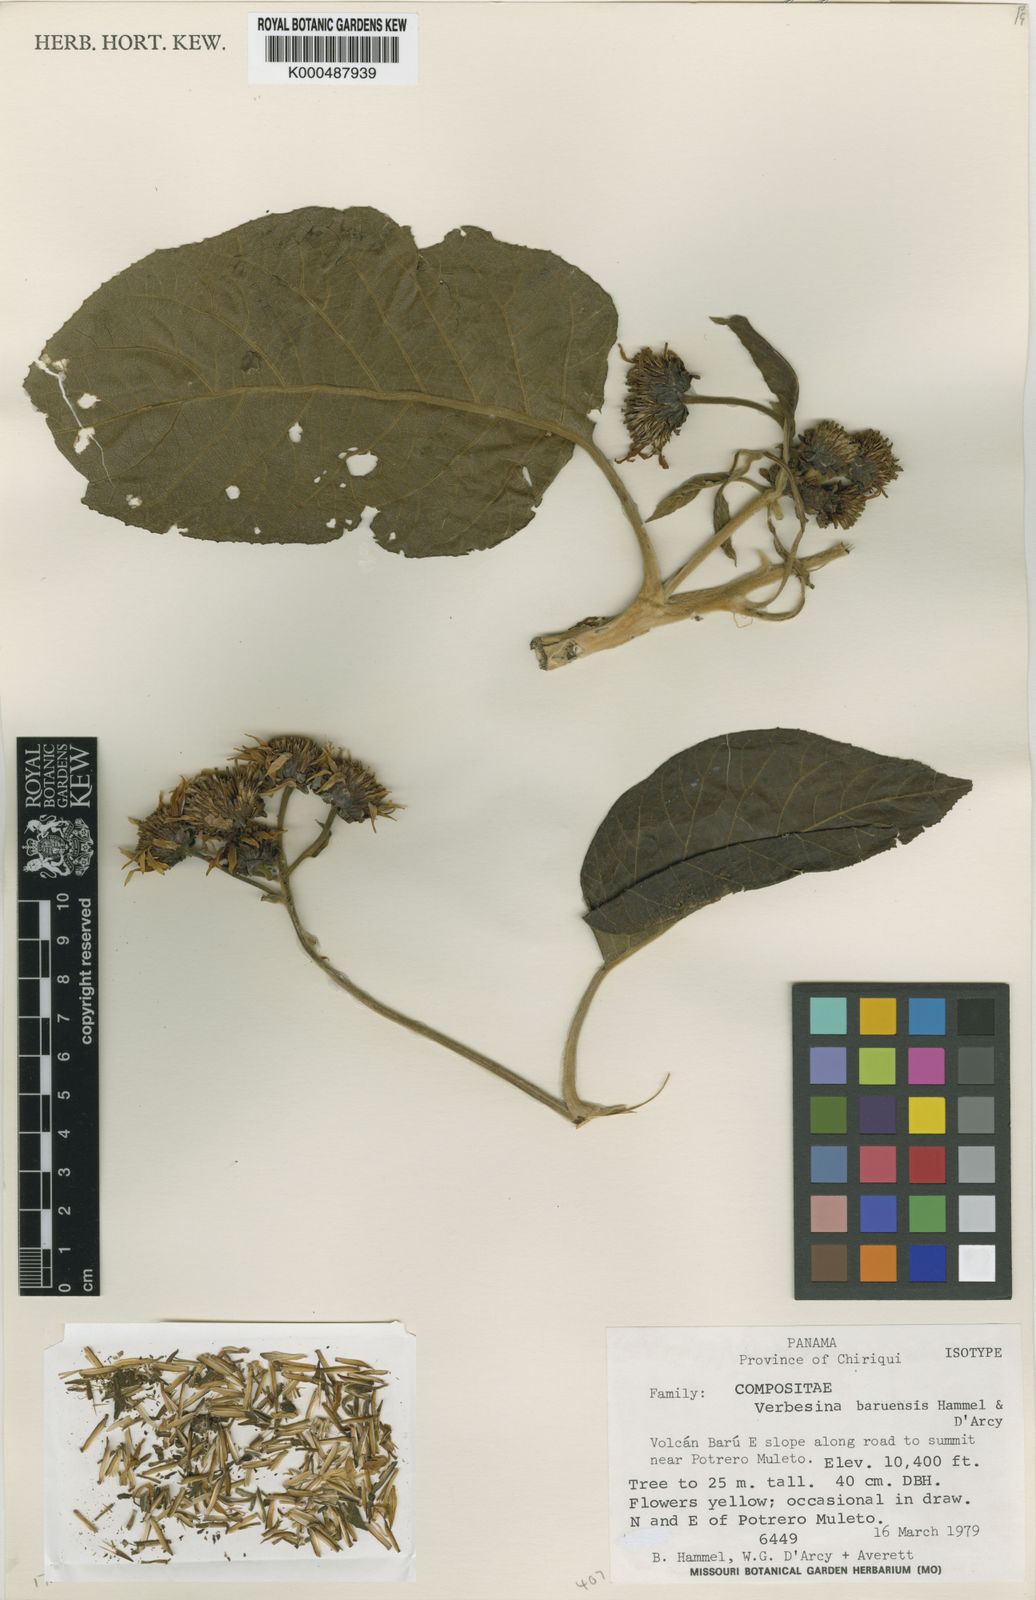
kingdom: Plantae
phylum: Tracheophyta
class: Magnoliopsida
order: Asterales
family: Asteraceae
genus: Verbesina
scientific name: Verbesina baruensis
